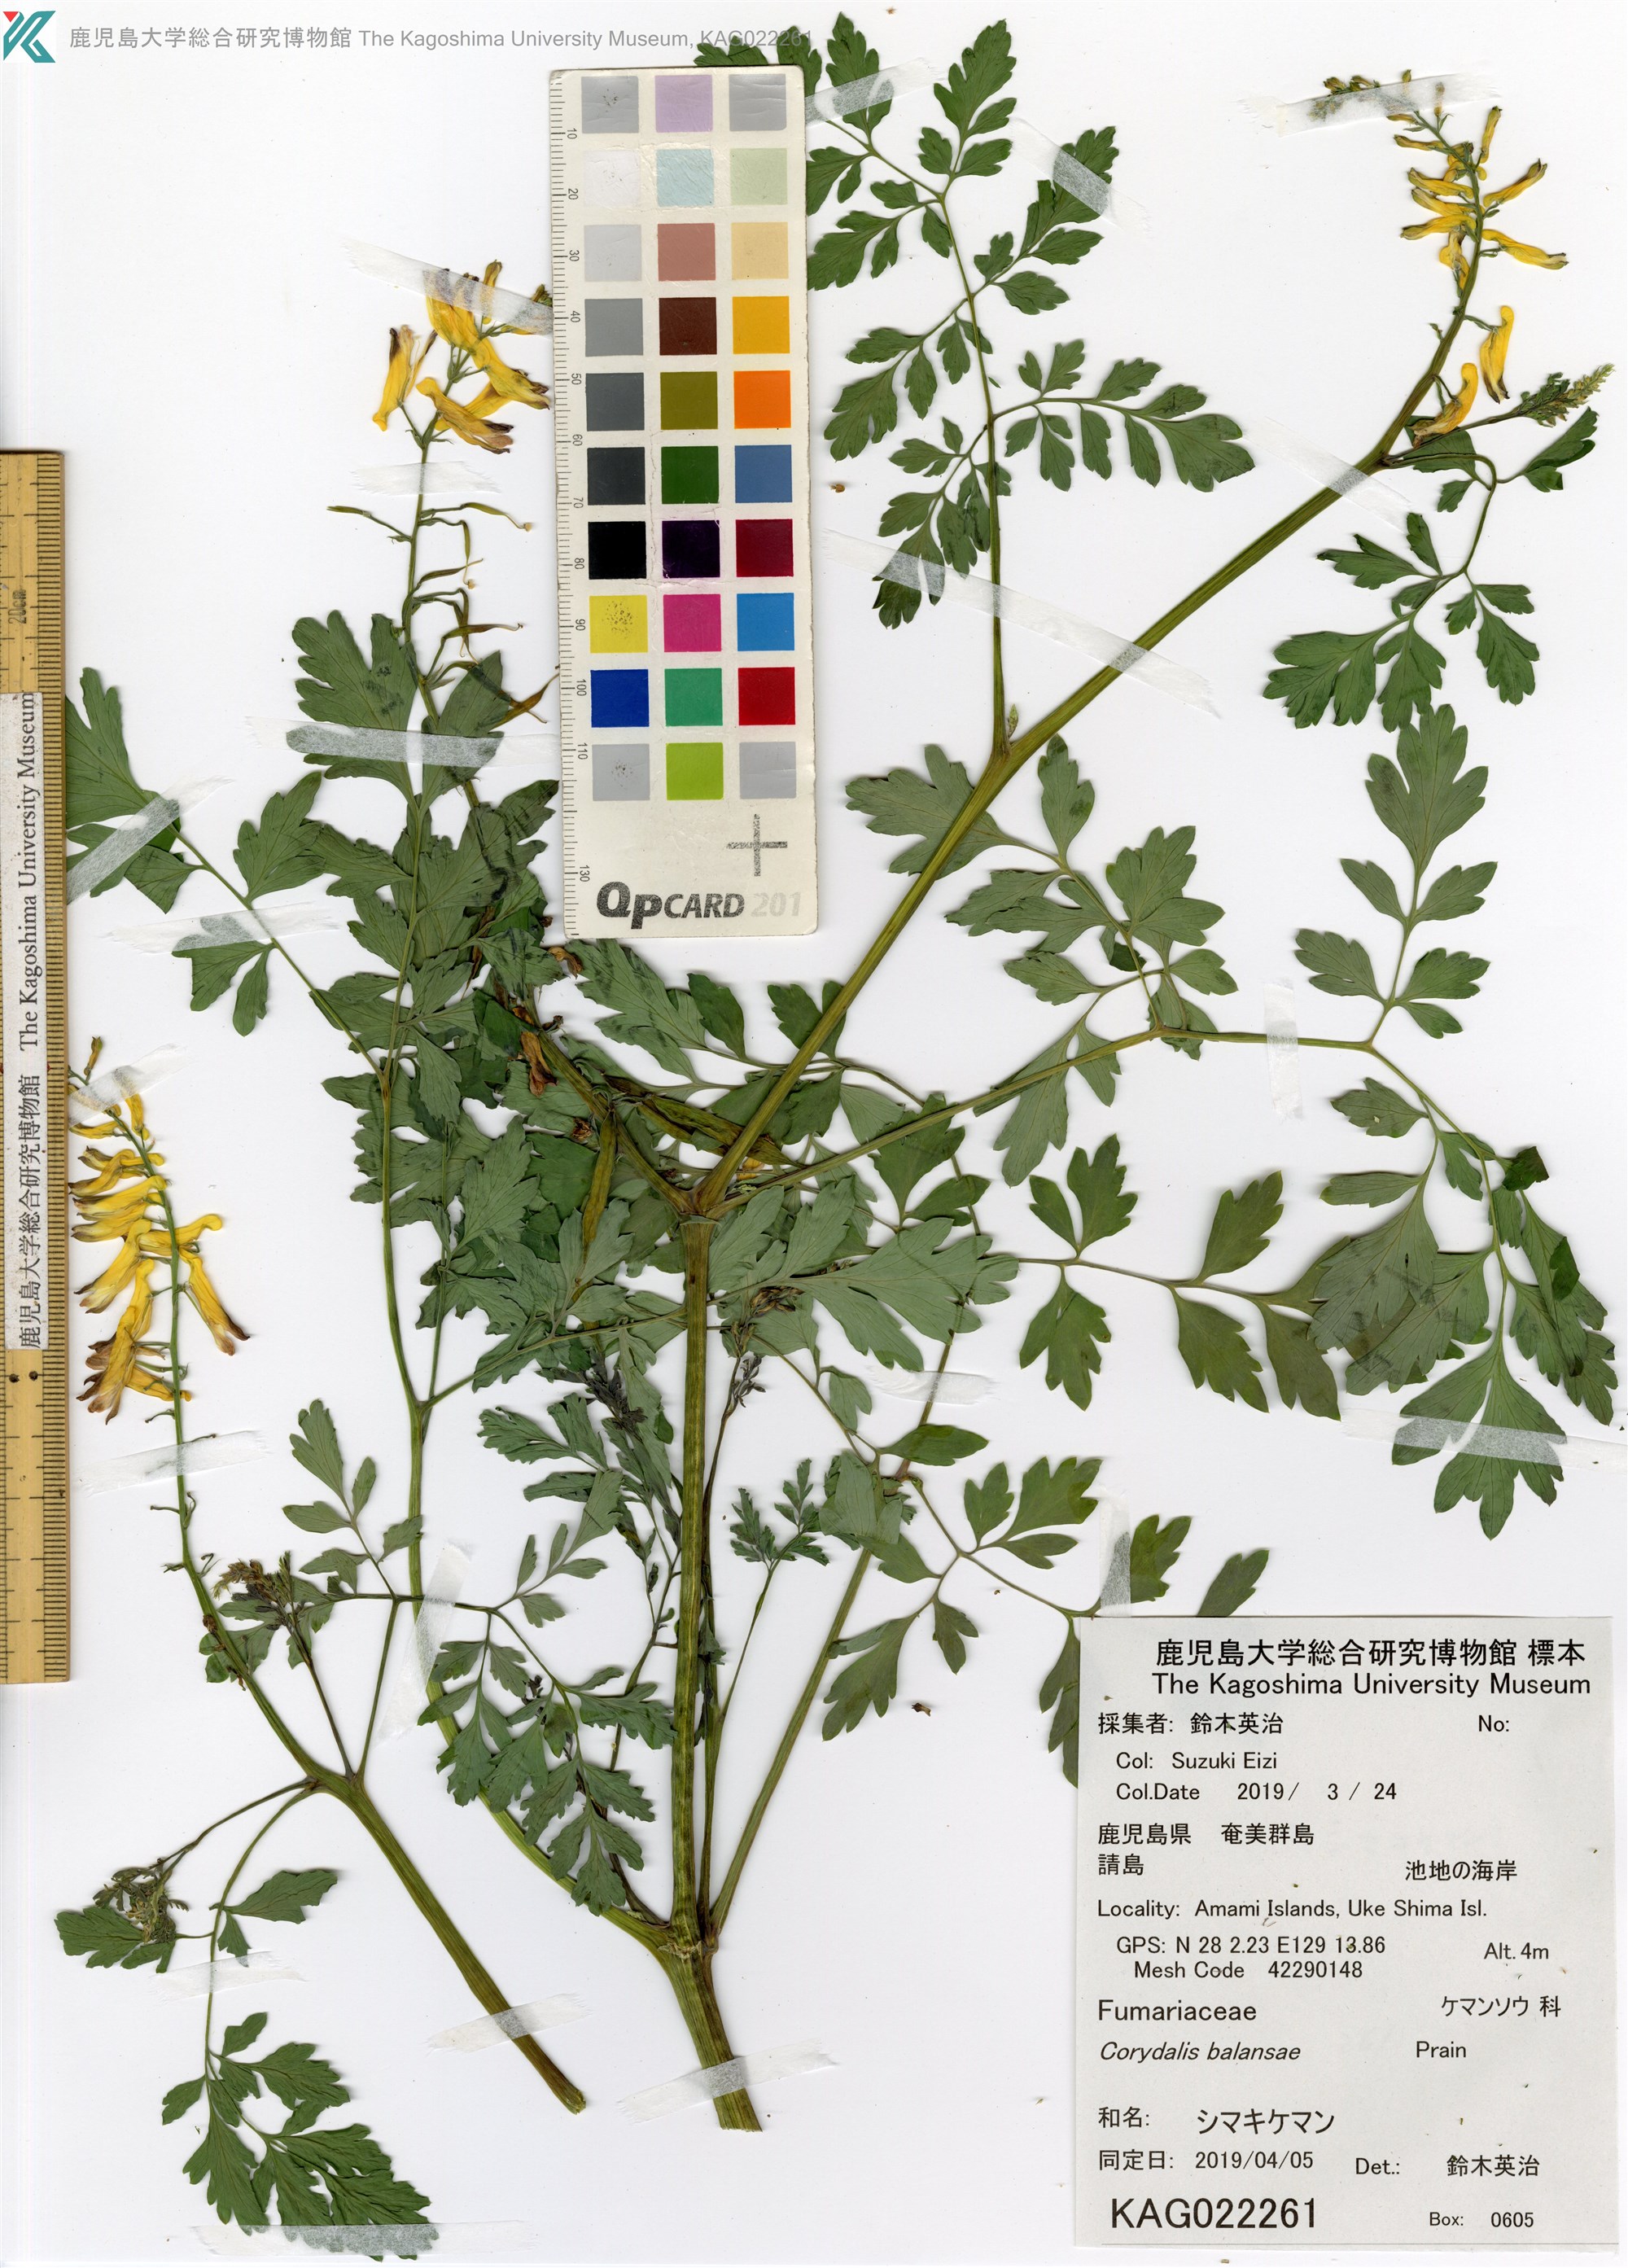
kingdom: Plantae
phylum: Tracheophyta
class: Magnoliopsida
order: Ranunculales
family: Papaveraceae
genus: Corydalis
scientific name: Corydalis balansae
